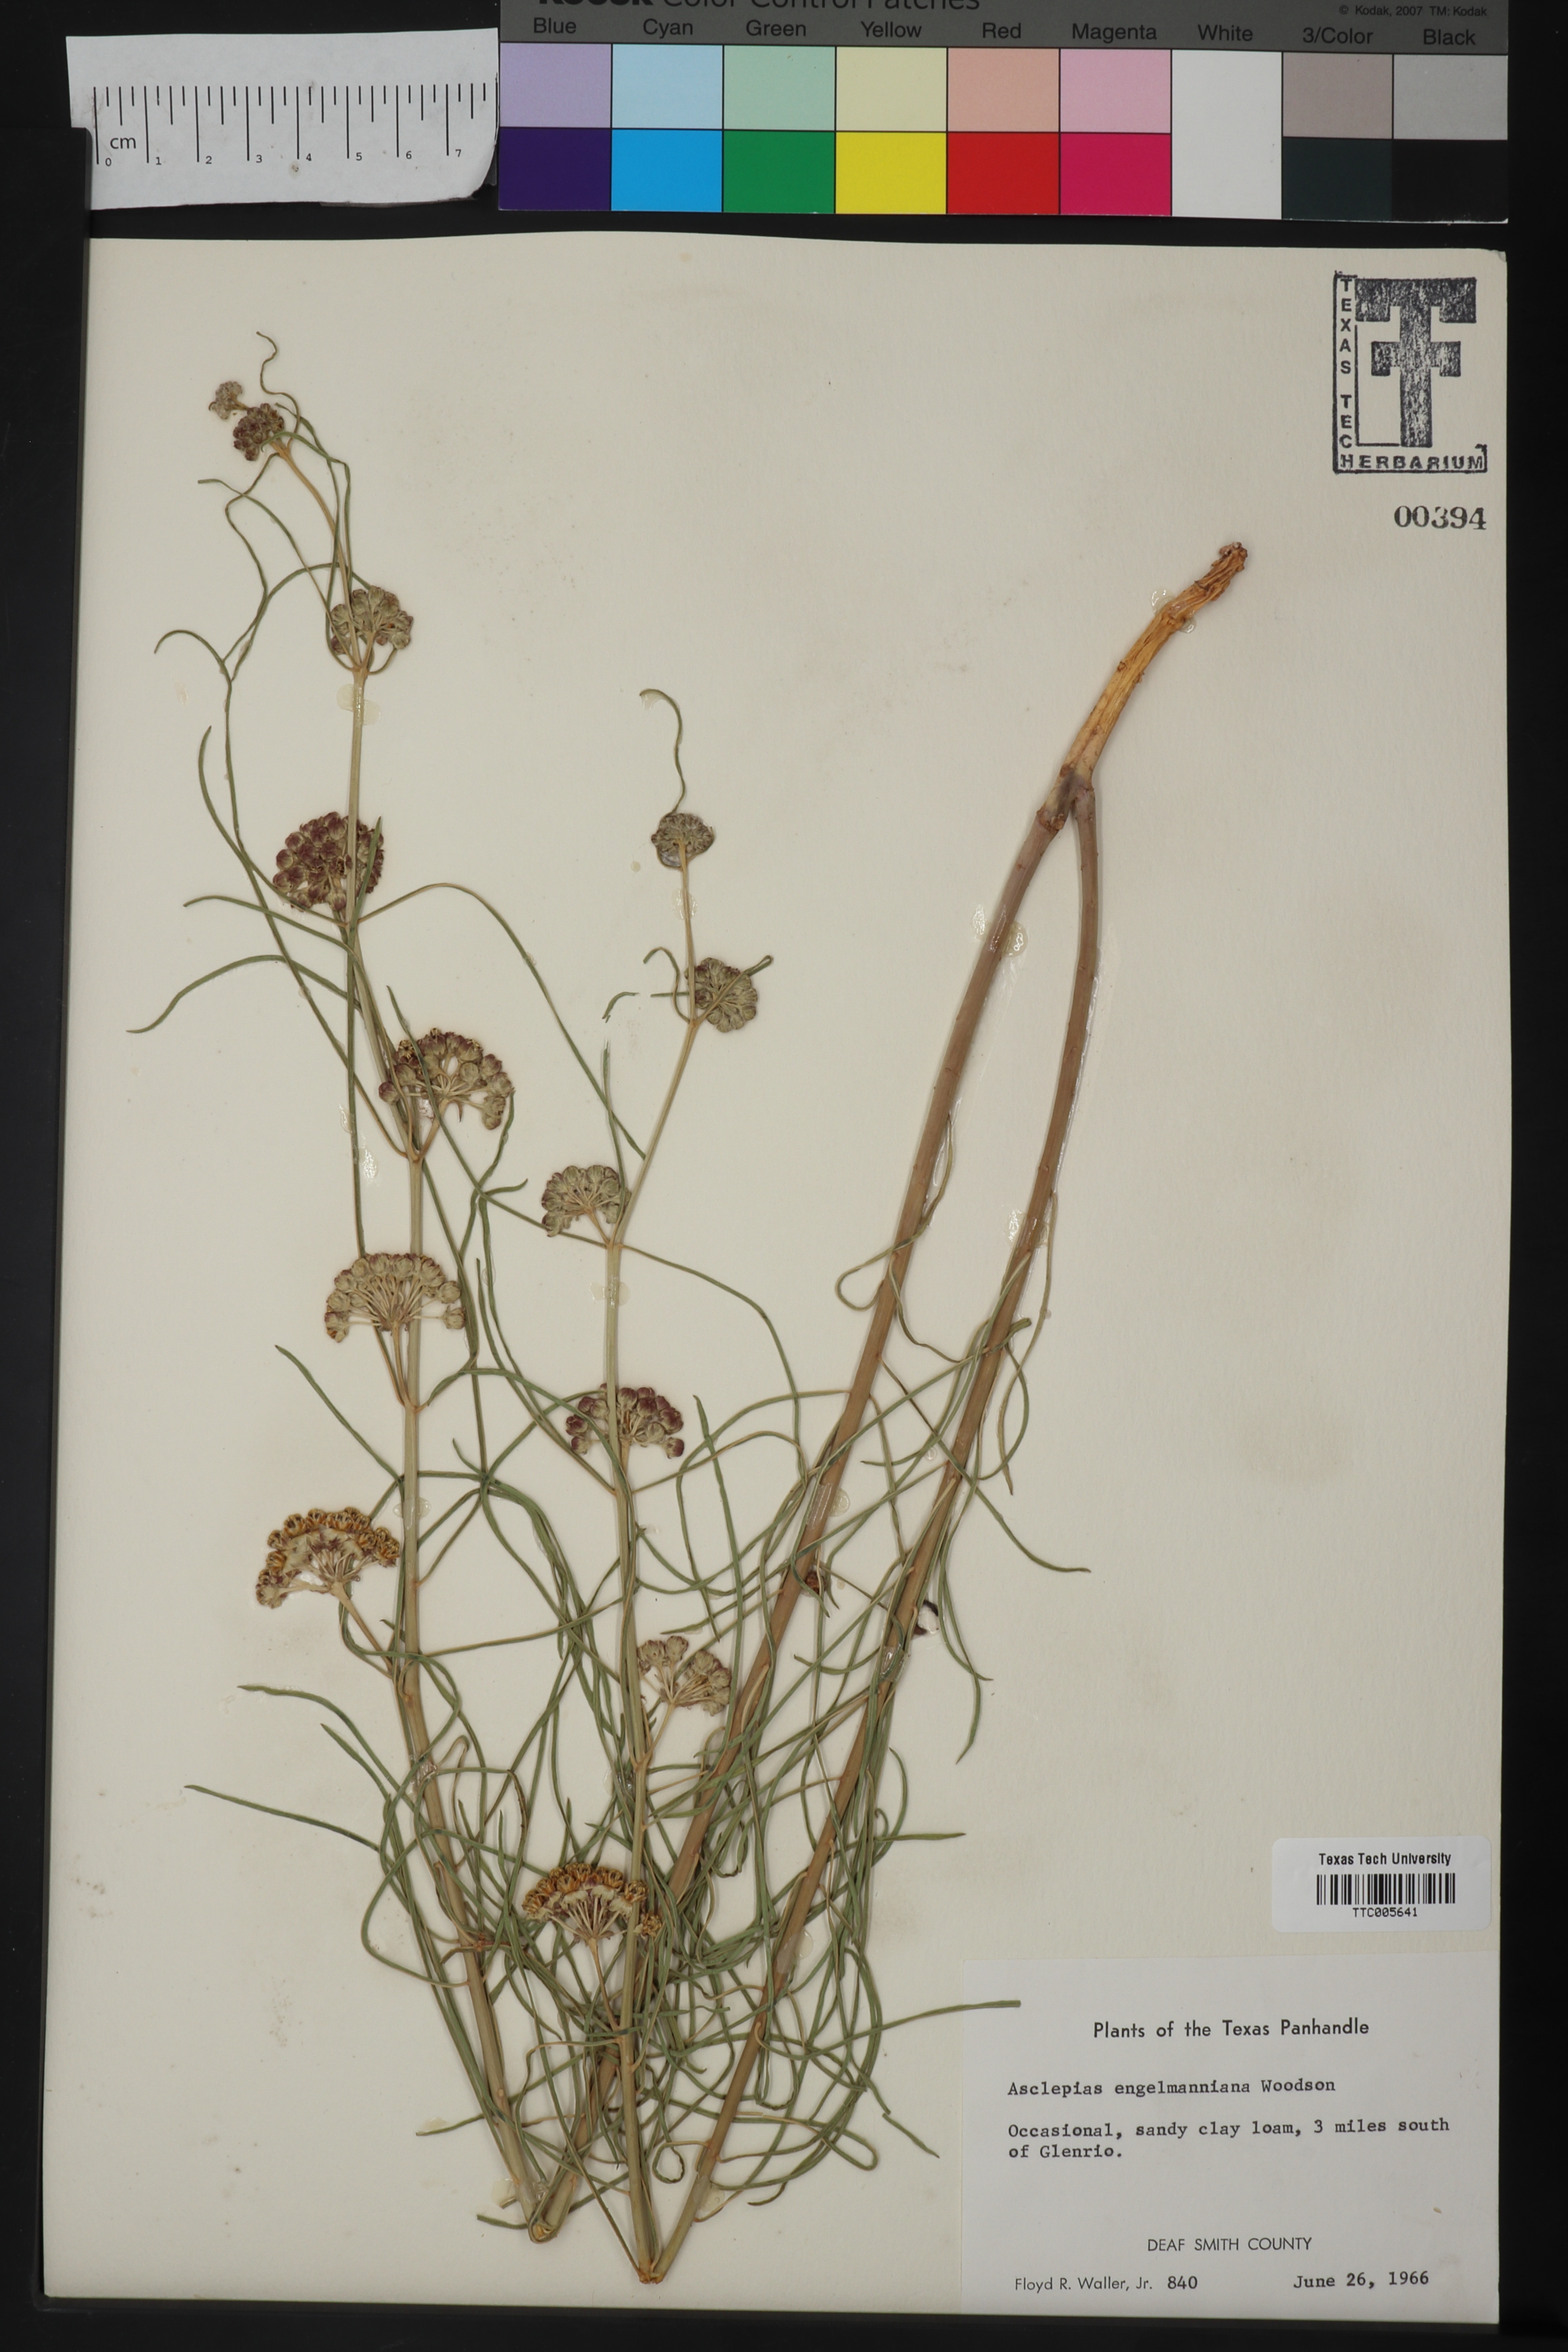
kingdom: Plantae
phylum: Tracheophyta
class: Magnoliopsida
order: Gentianales
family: Apocynaceae
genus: Asclepias
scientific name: Asclepias engelmanniana
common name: Engelmann's milkweed
